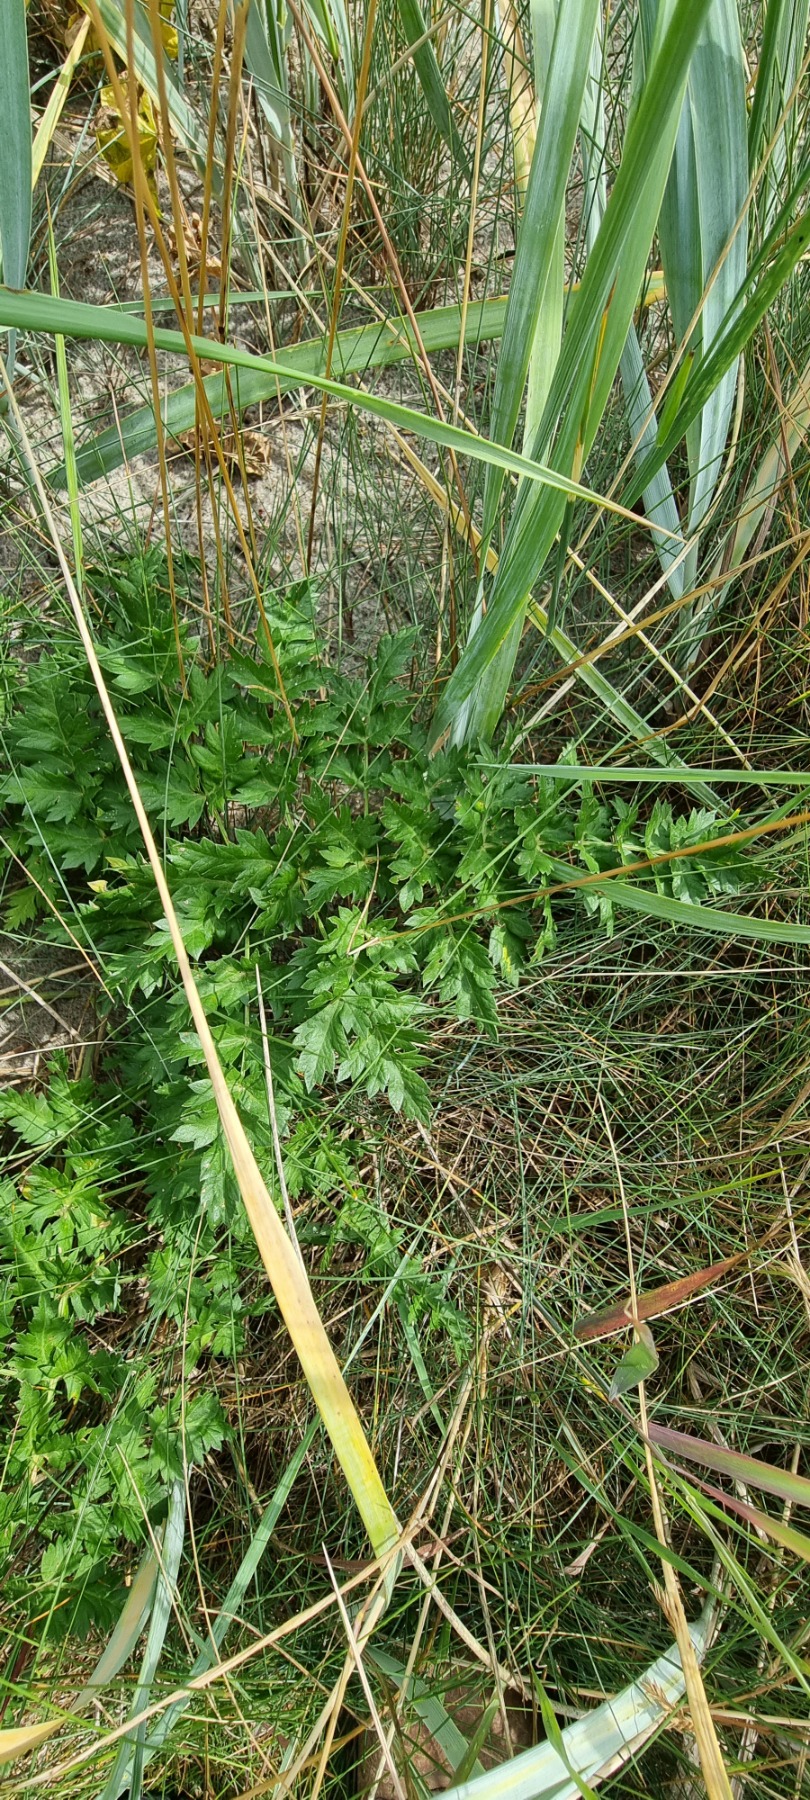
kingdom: Plantae
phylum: Tracheophyta
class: Magnoliopsida
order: Apiales
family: Apiaceae
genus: Seseli
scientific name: Seseli libanotis
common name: Hjorterod
